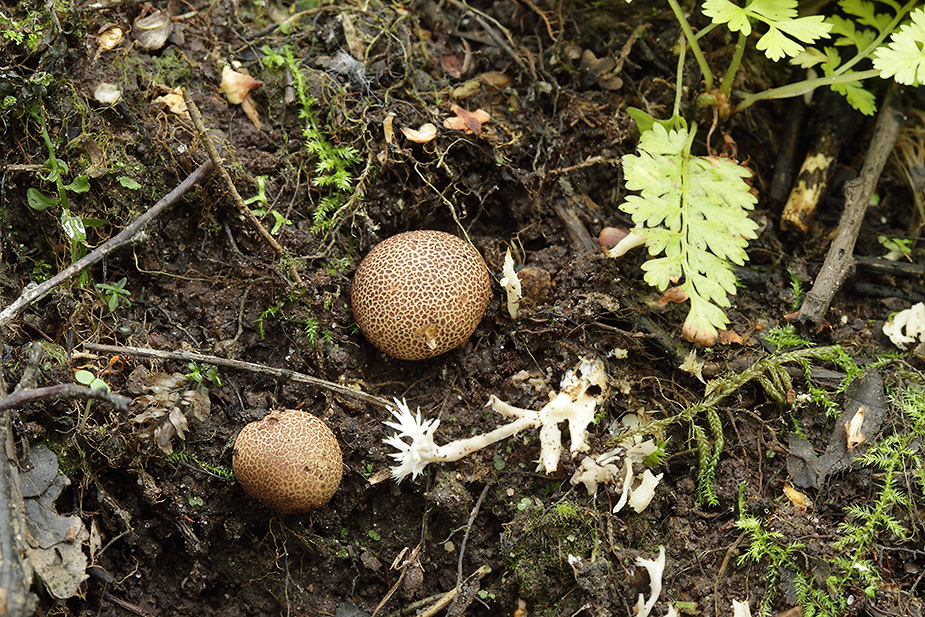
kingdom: Fungi
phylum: Basidiomycota
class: Agaricomycetes
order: Boletales
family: Sclerodermataceae
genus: Scleroderma
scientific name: Scleroderma areolatum
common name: plettet bruskbold
